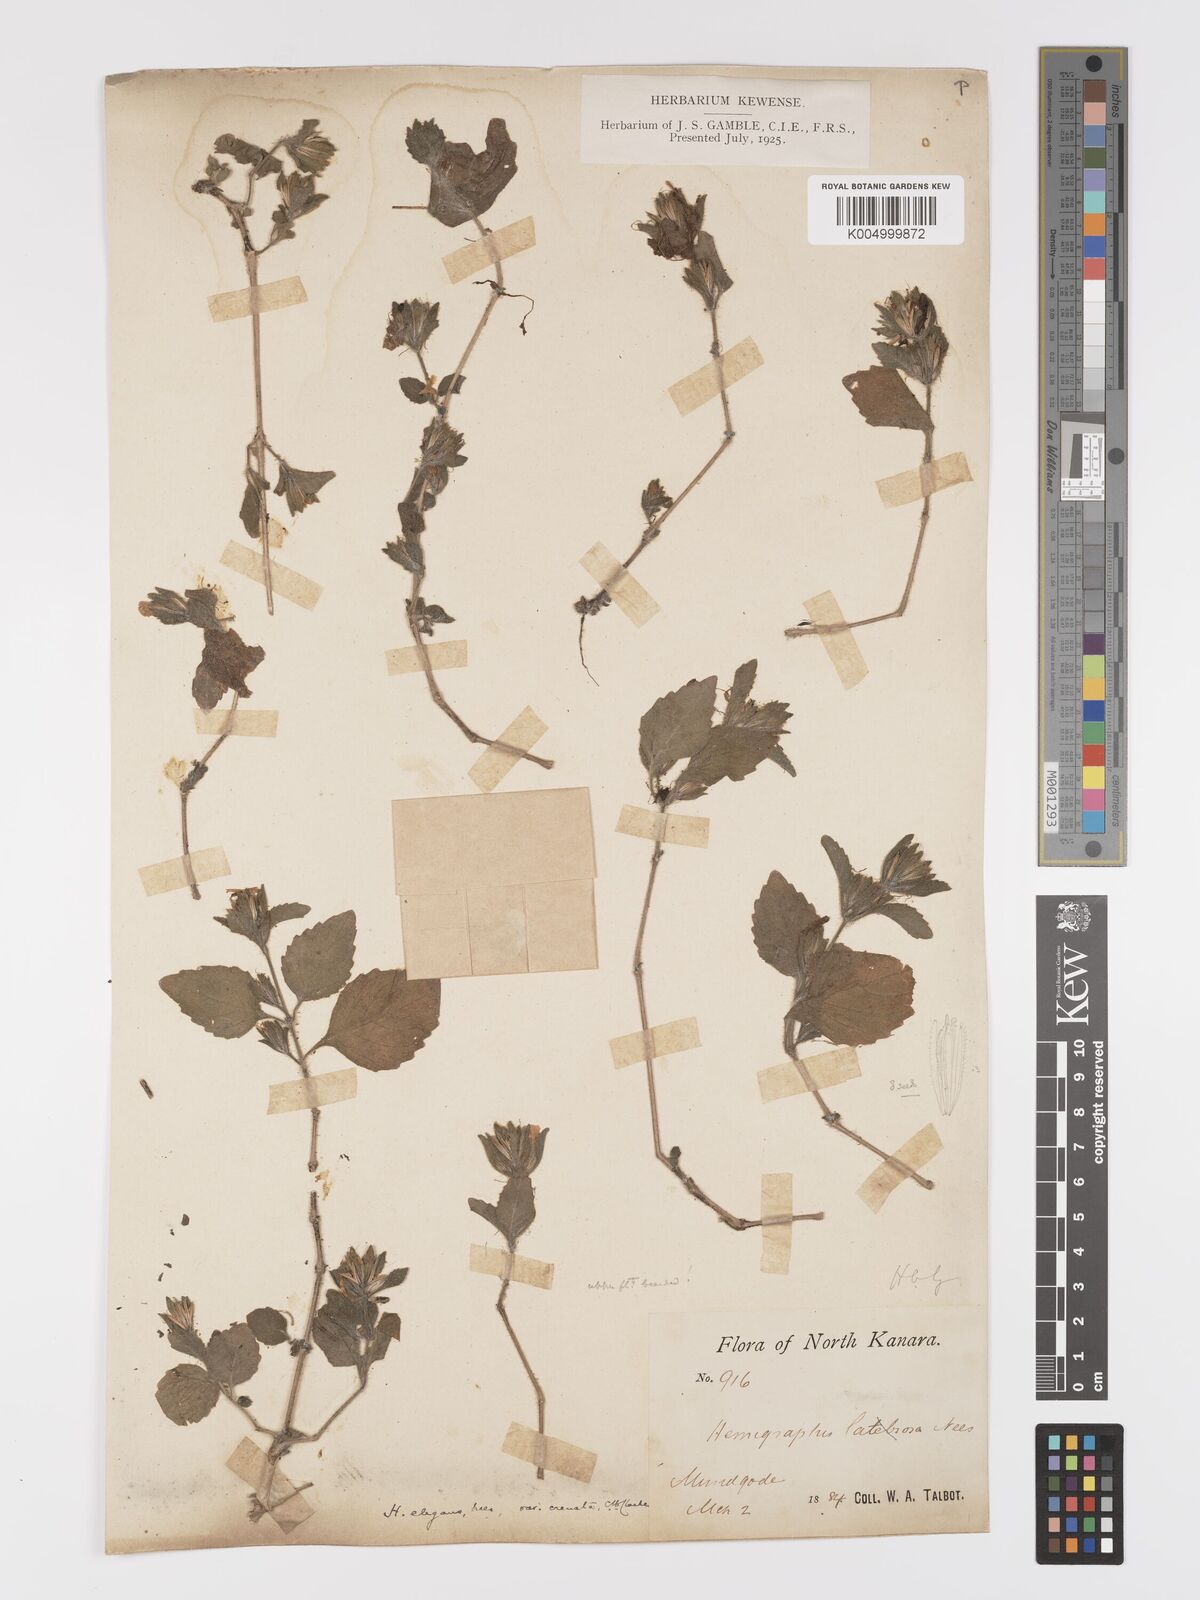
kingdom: Plantae
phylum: Tracheophyta
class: Magnoliopsida
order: Lamiales
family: Acanthaceae
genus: Strobilanthes
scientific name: Strobilanthes pavala
